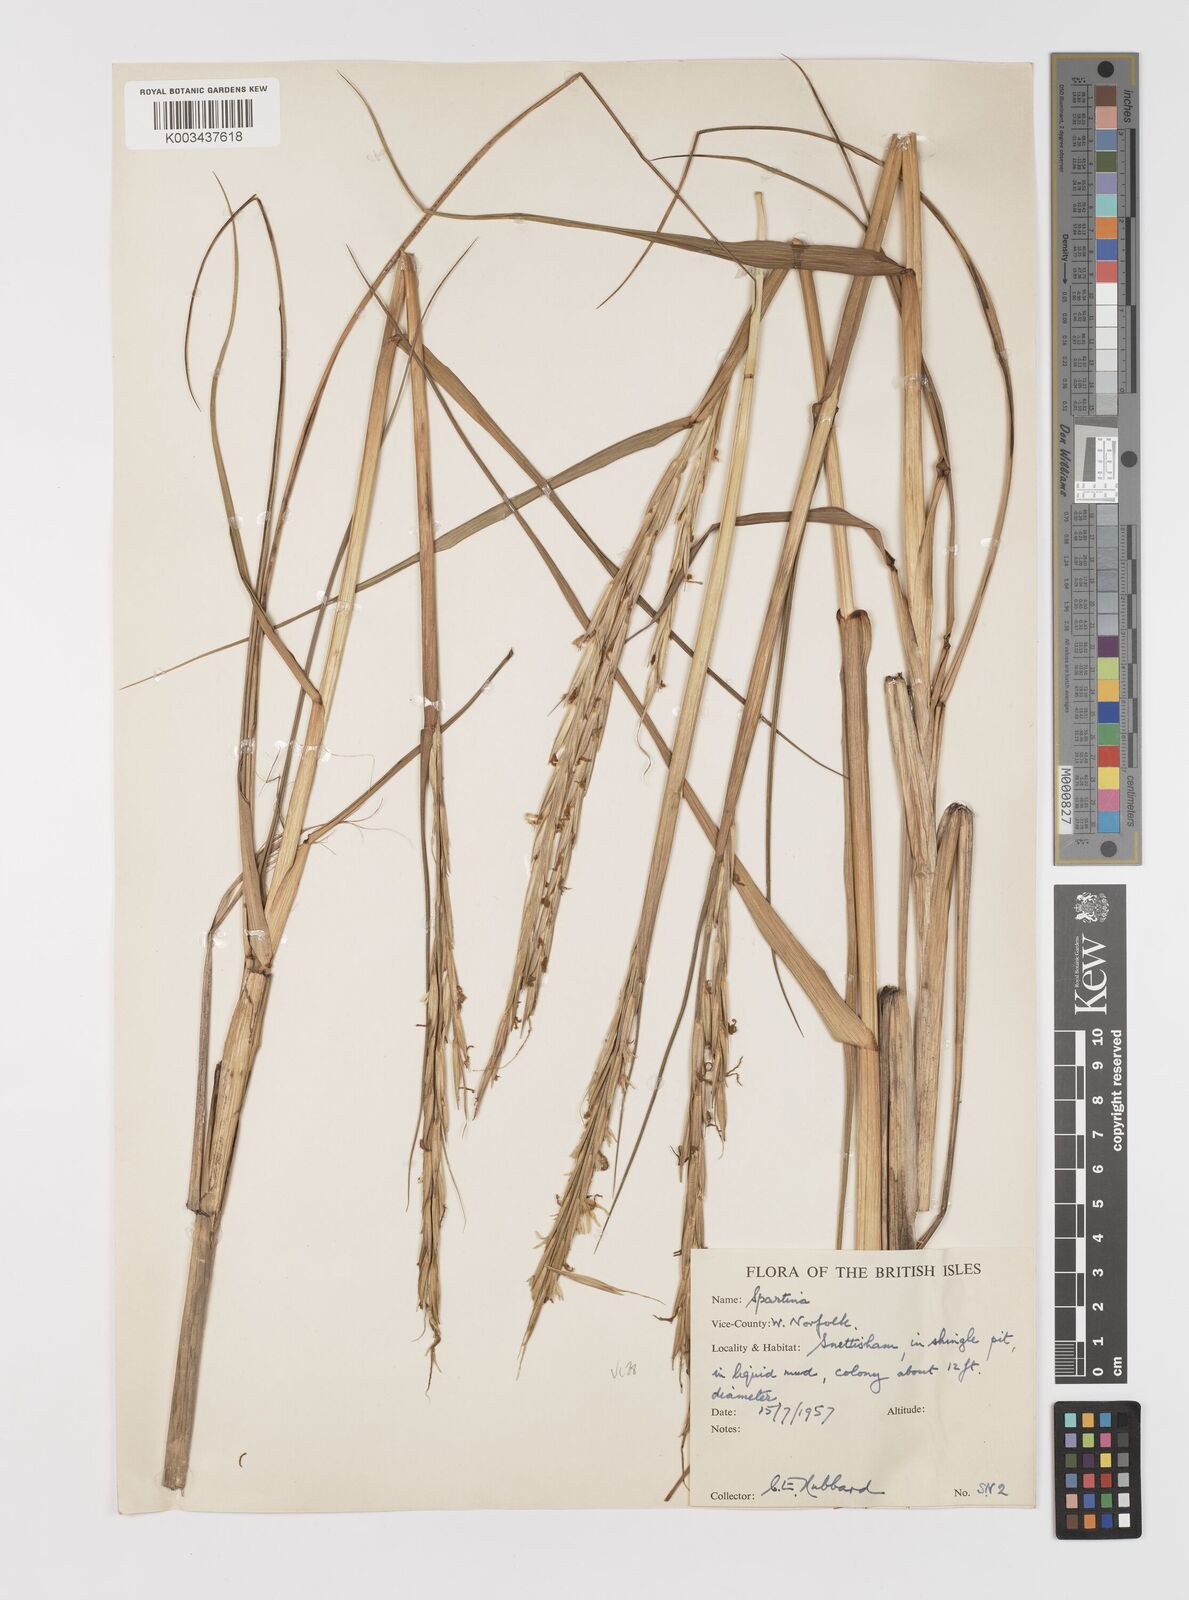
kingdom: Plantae
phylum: Tracheophyta
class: Liliopsida
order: Poales
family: Poaceae
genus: Sporobolus
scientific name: Sporobolus anglicus
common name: English cordgrass
